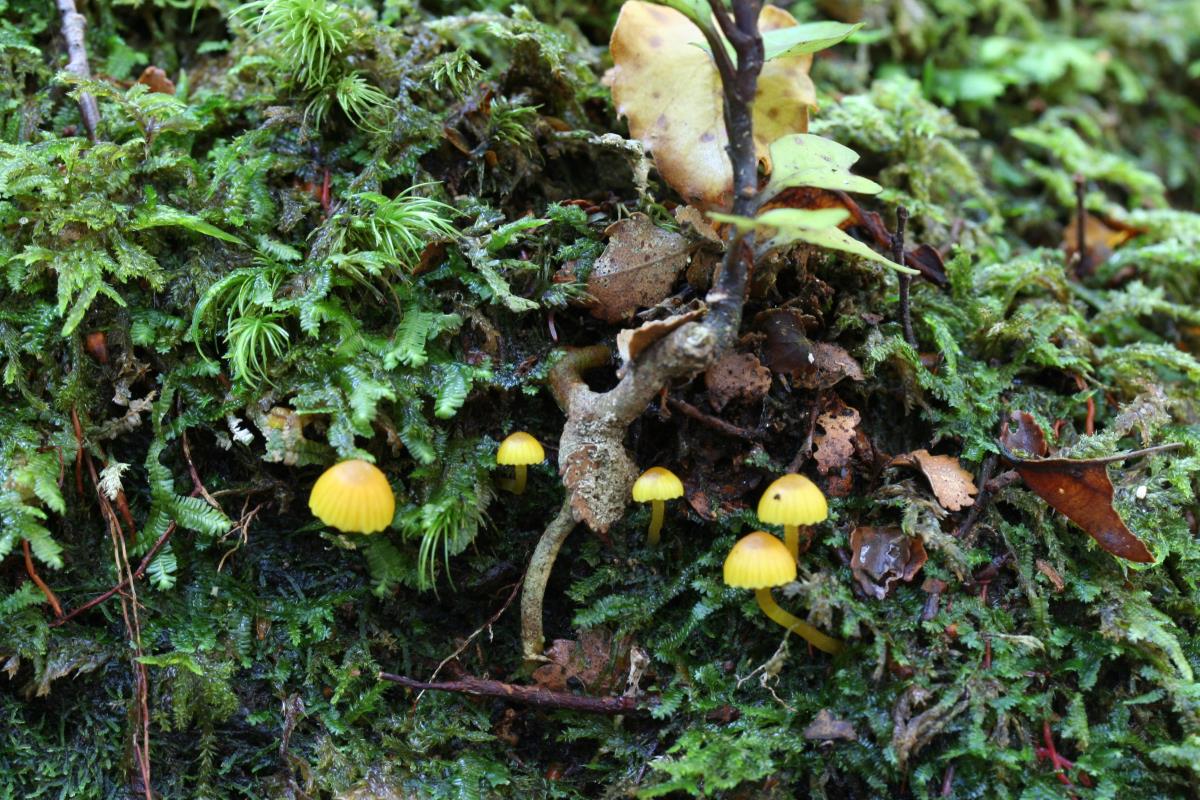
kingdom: Fungi
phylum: Basidiomycota
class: Agaricomycetes
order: Agaricales
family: Hygrophoraceae
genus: Hygrocybe
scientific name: Hygrocybe
